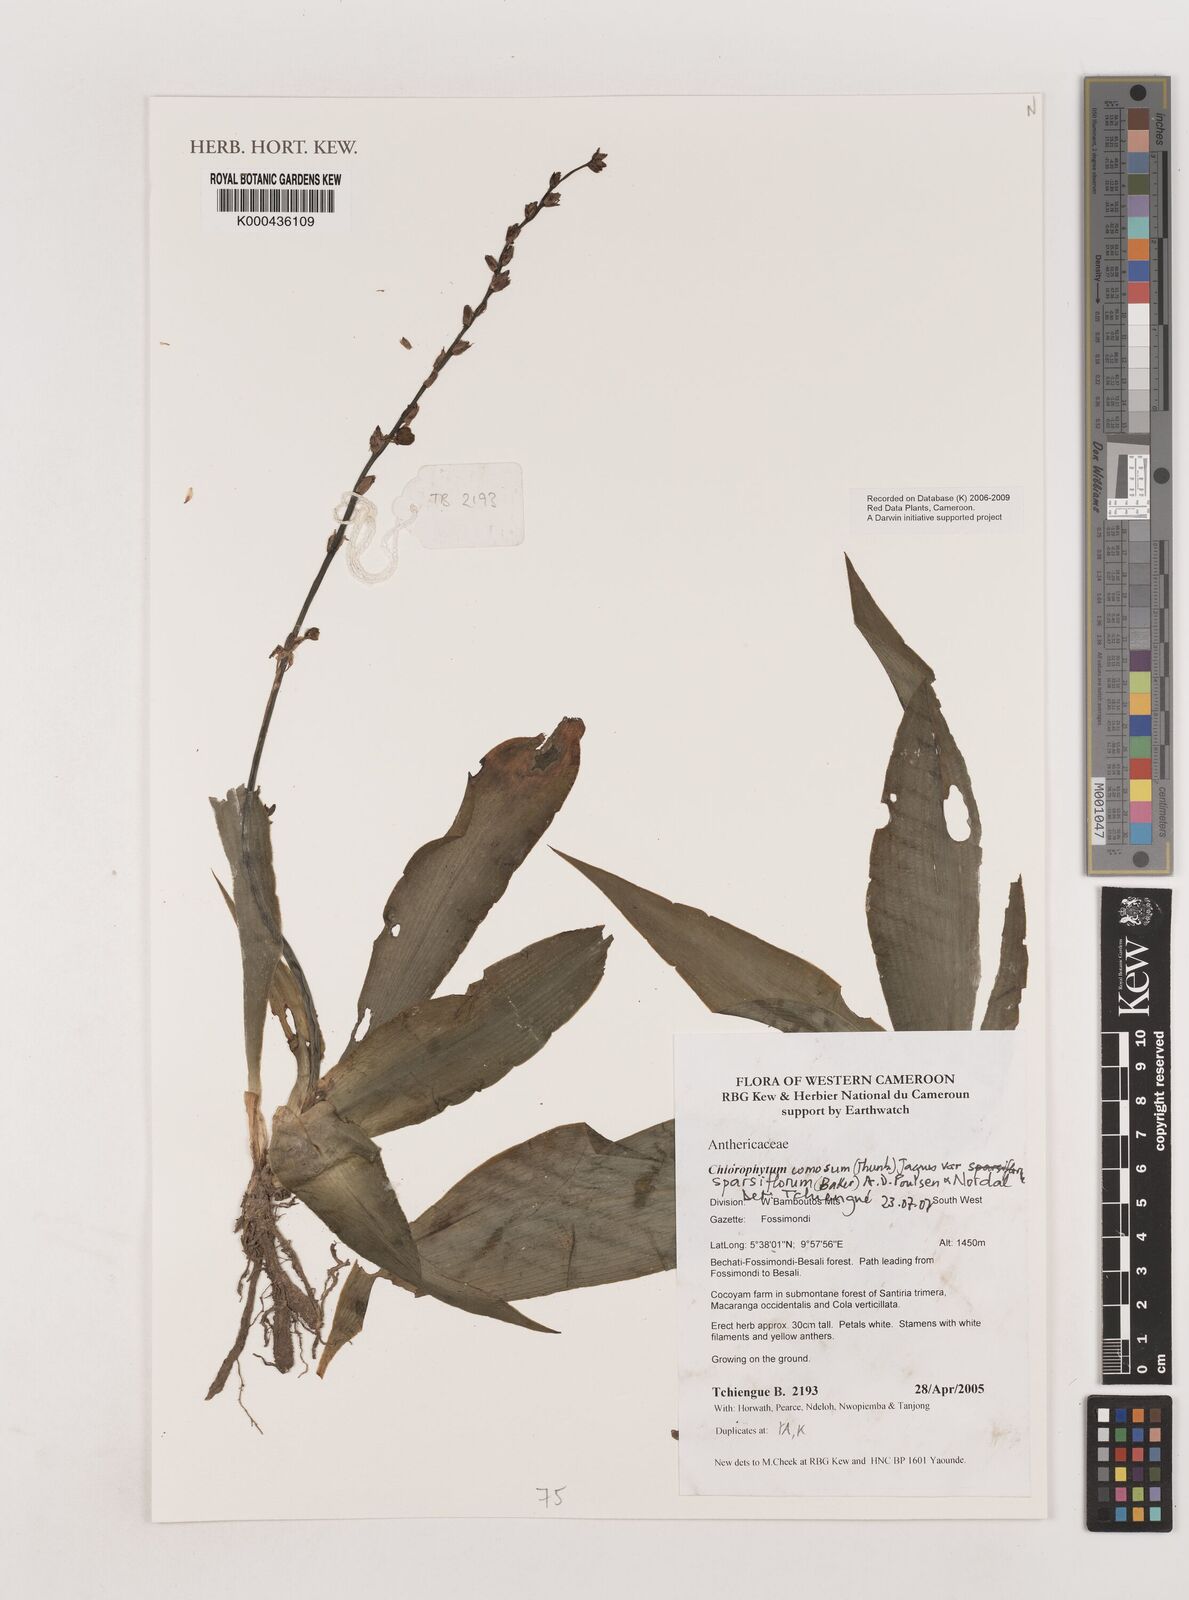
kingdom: Plantae
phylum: Tracheophyta
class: Liliopsida
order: Asparagales
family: Asparagaceae
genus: Chlorophytum
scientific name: Chlorophytum sparsiflorum
